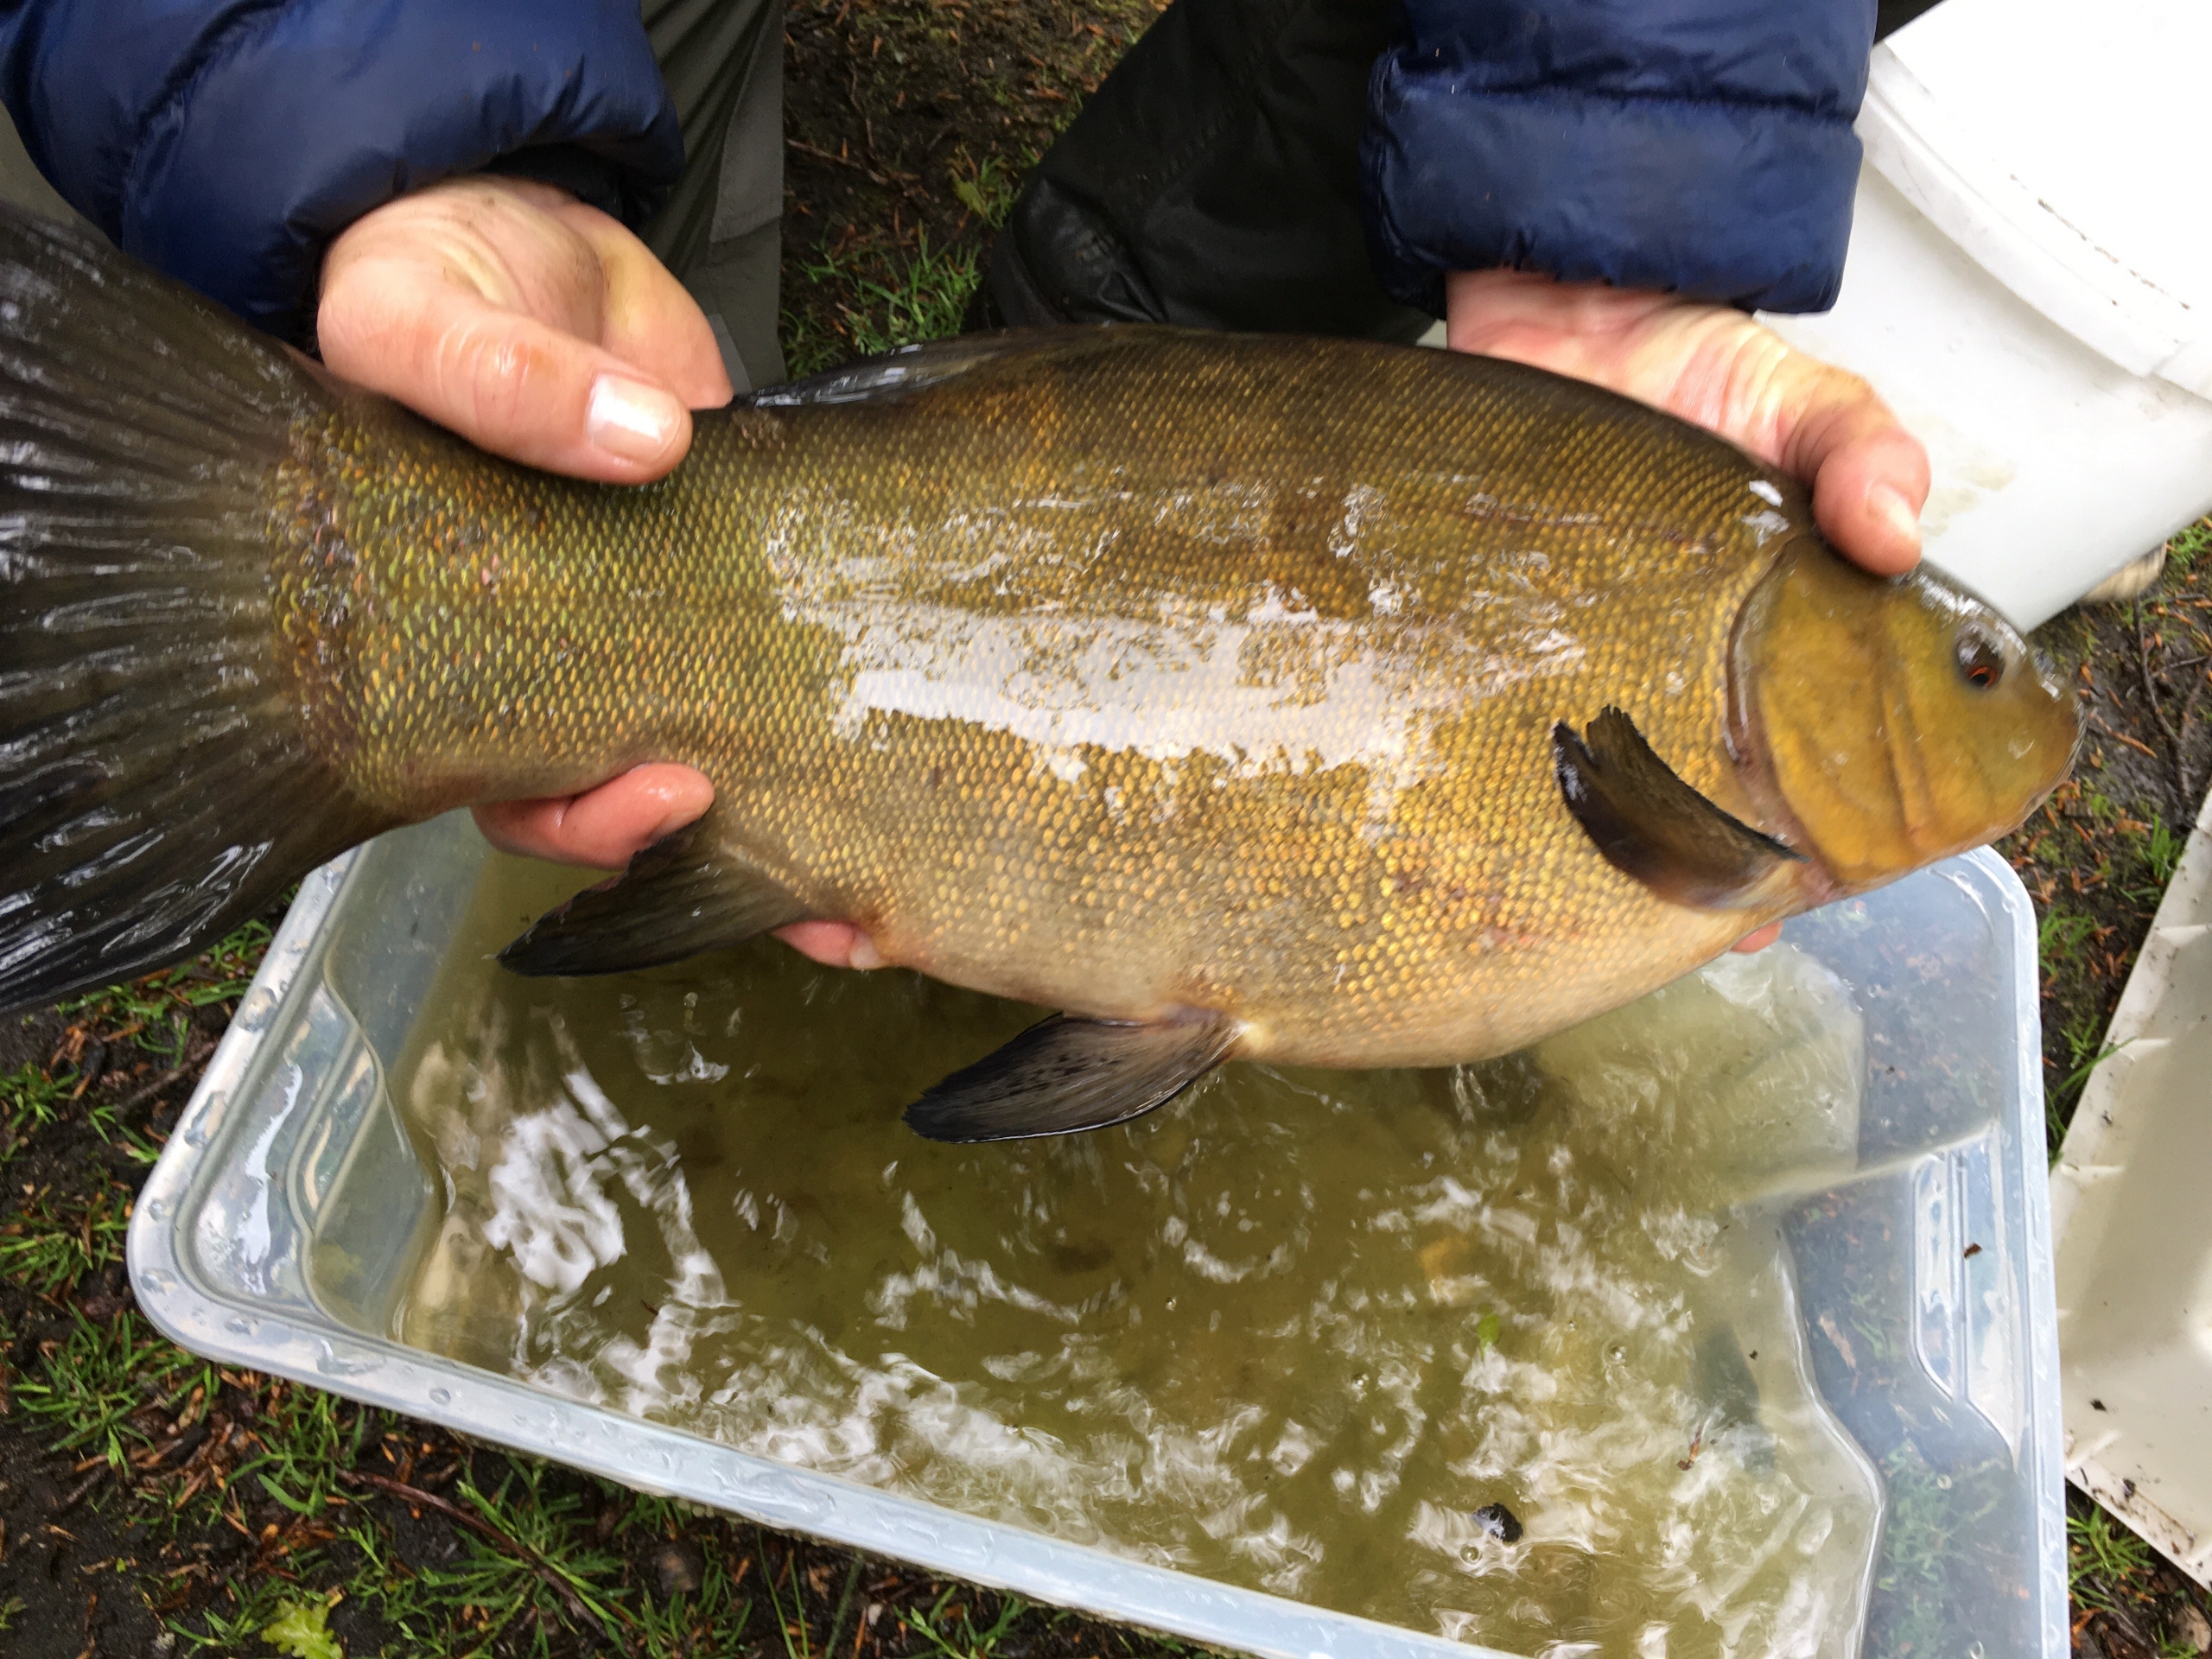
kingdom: Animalia
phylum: Chordata
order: Cypriniformes
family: Cyprinidae
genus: Tinca
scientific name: Tinca tinca
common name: Suder
